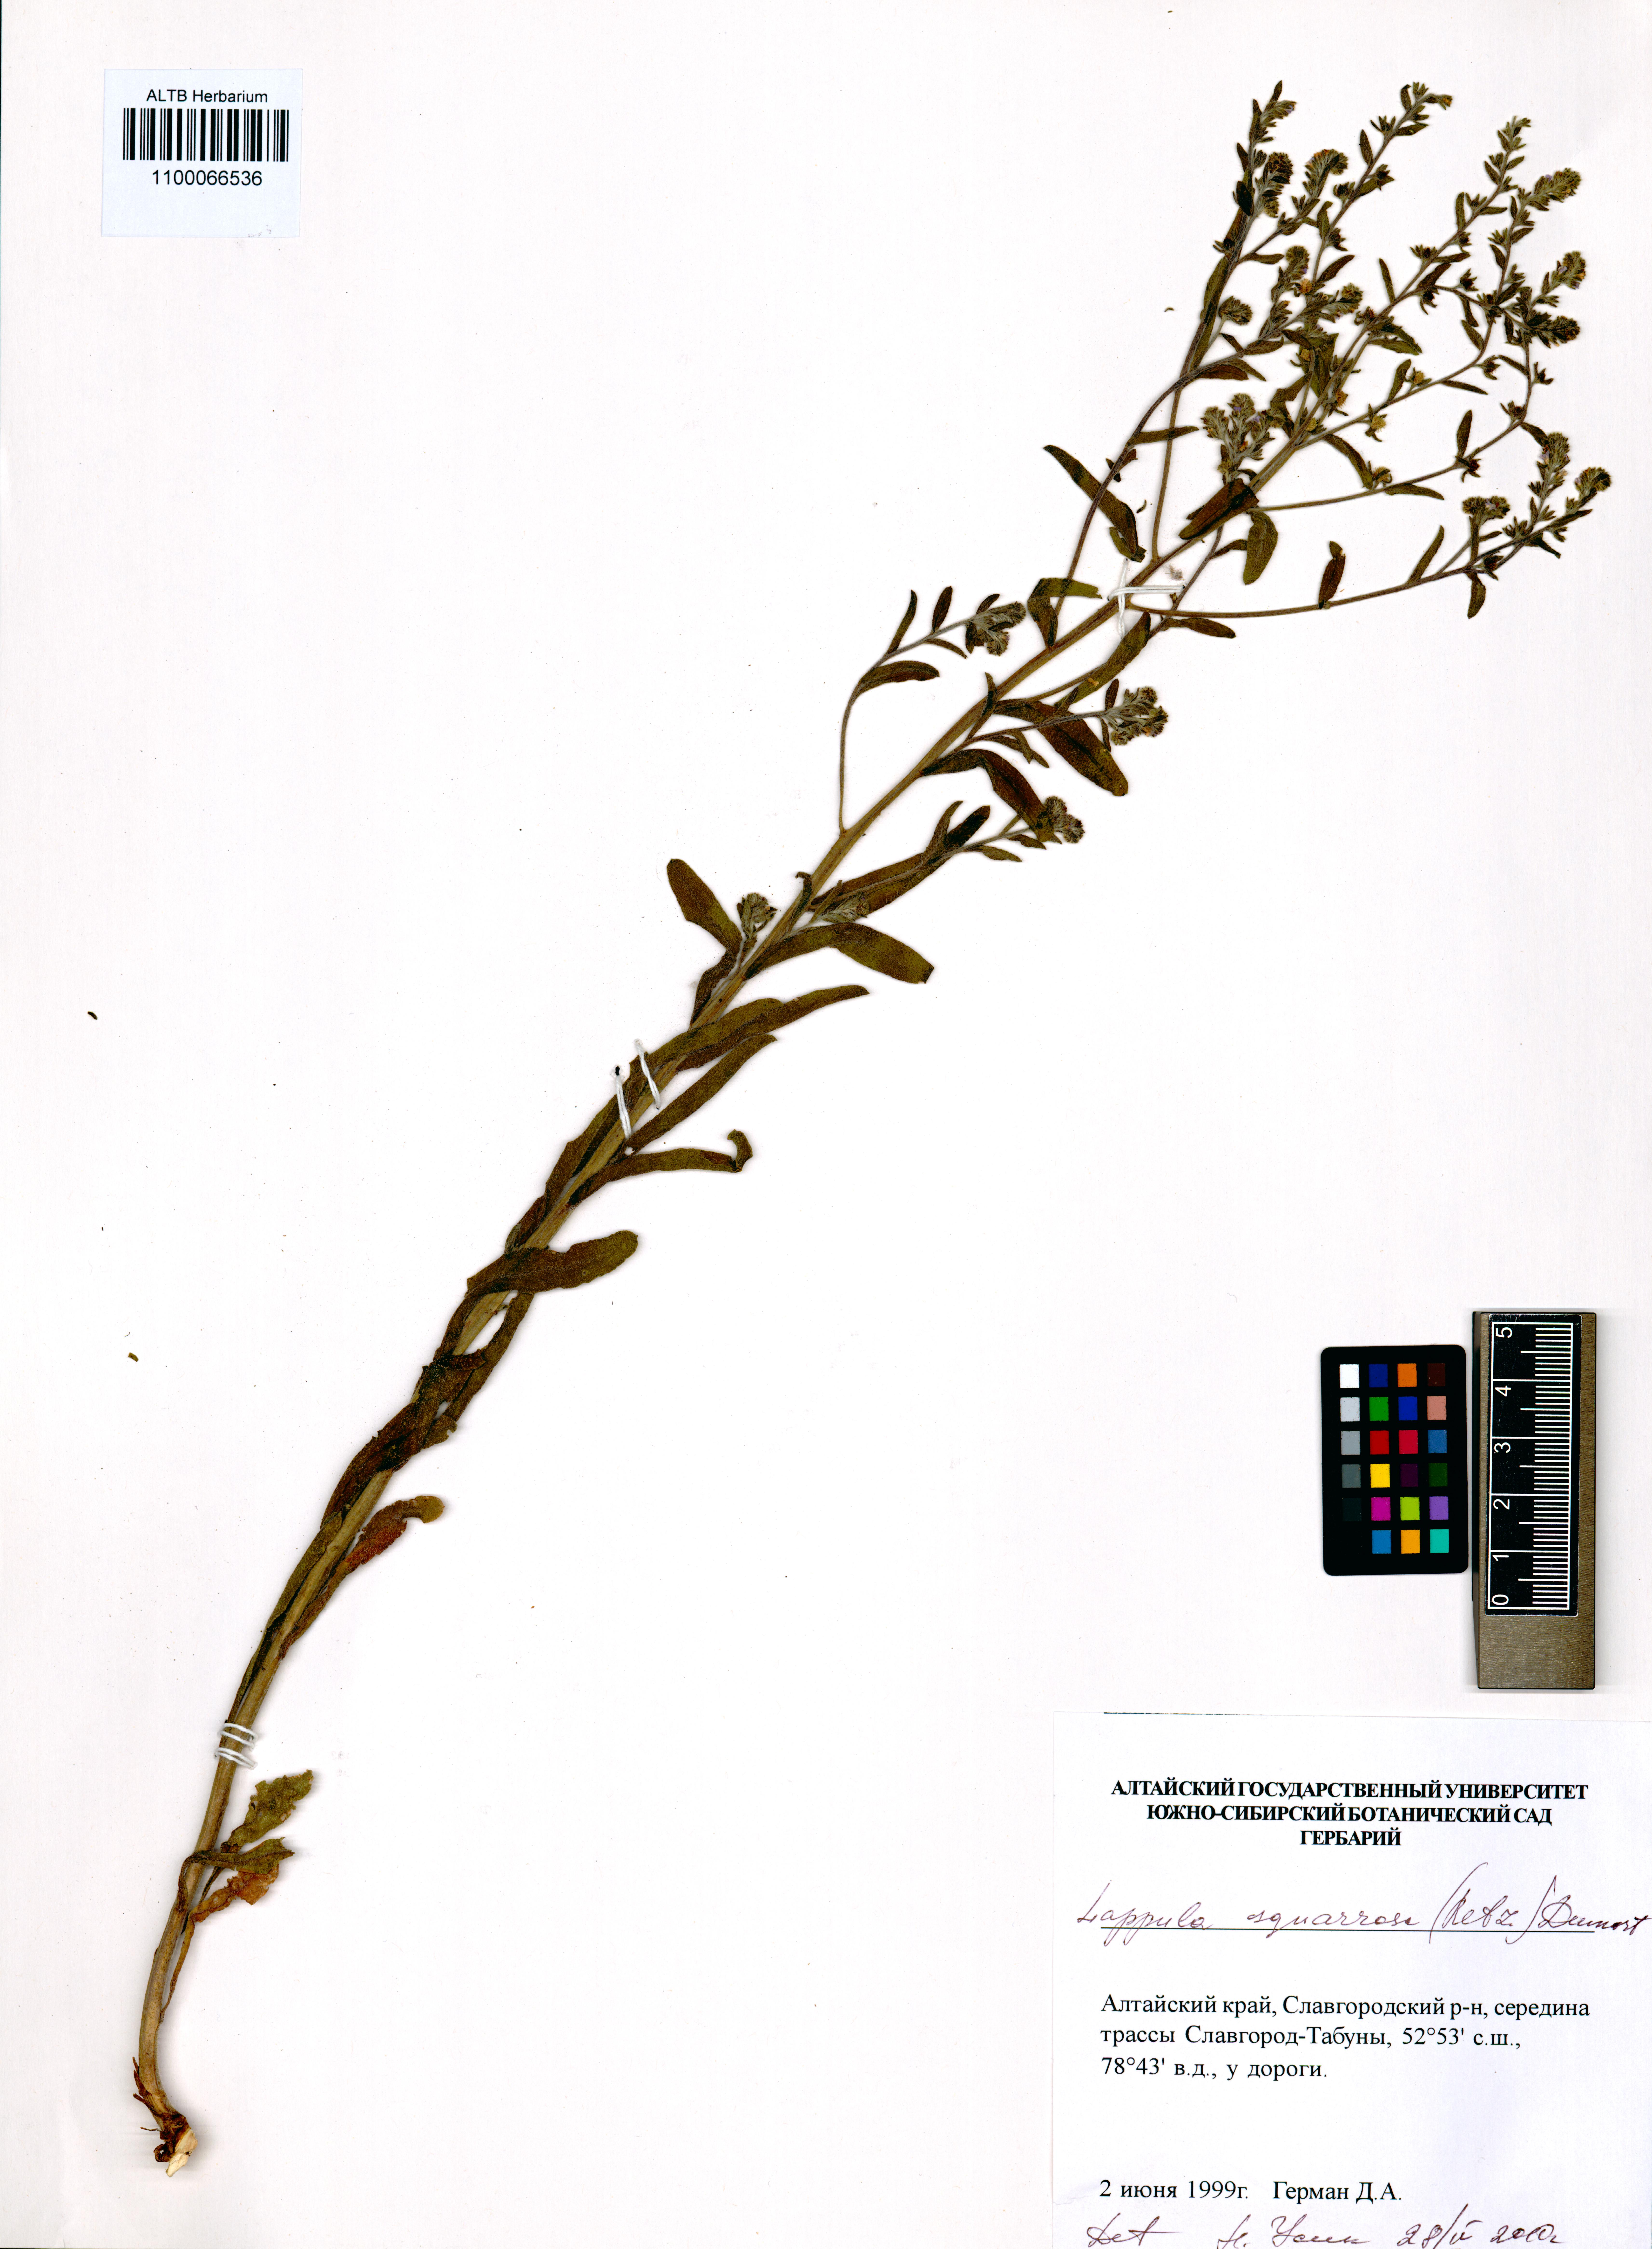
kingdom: Plantae
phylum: Tracheophyta
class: Magnoliopsida
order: Boraginales
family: Boraginaceae
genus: Lappula
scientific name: Lappula squarrosa
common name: European stickseed
